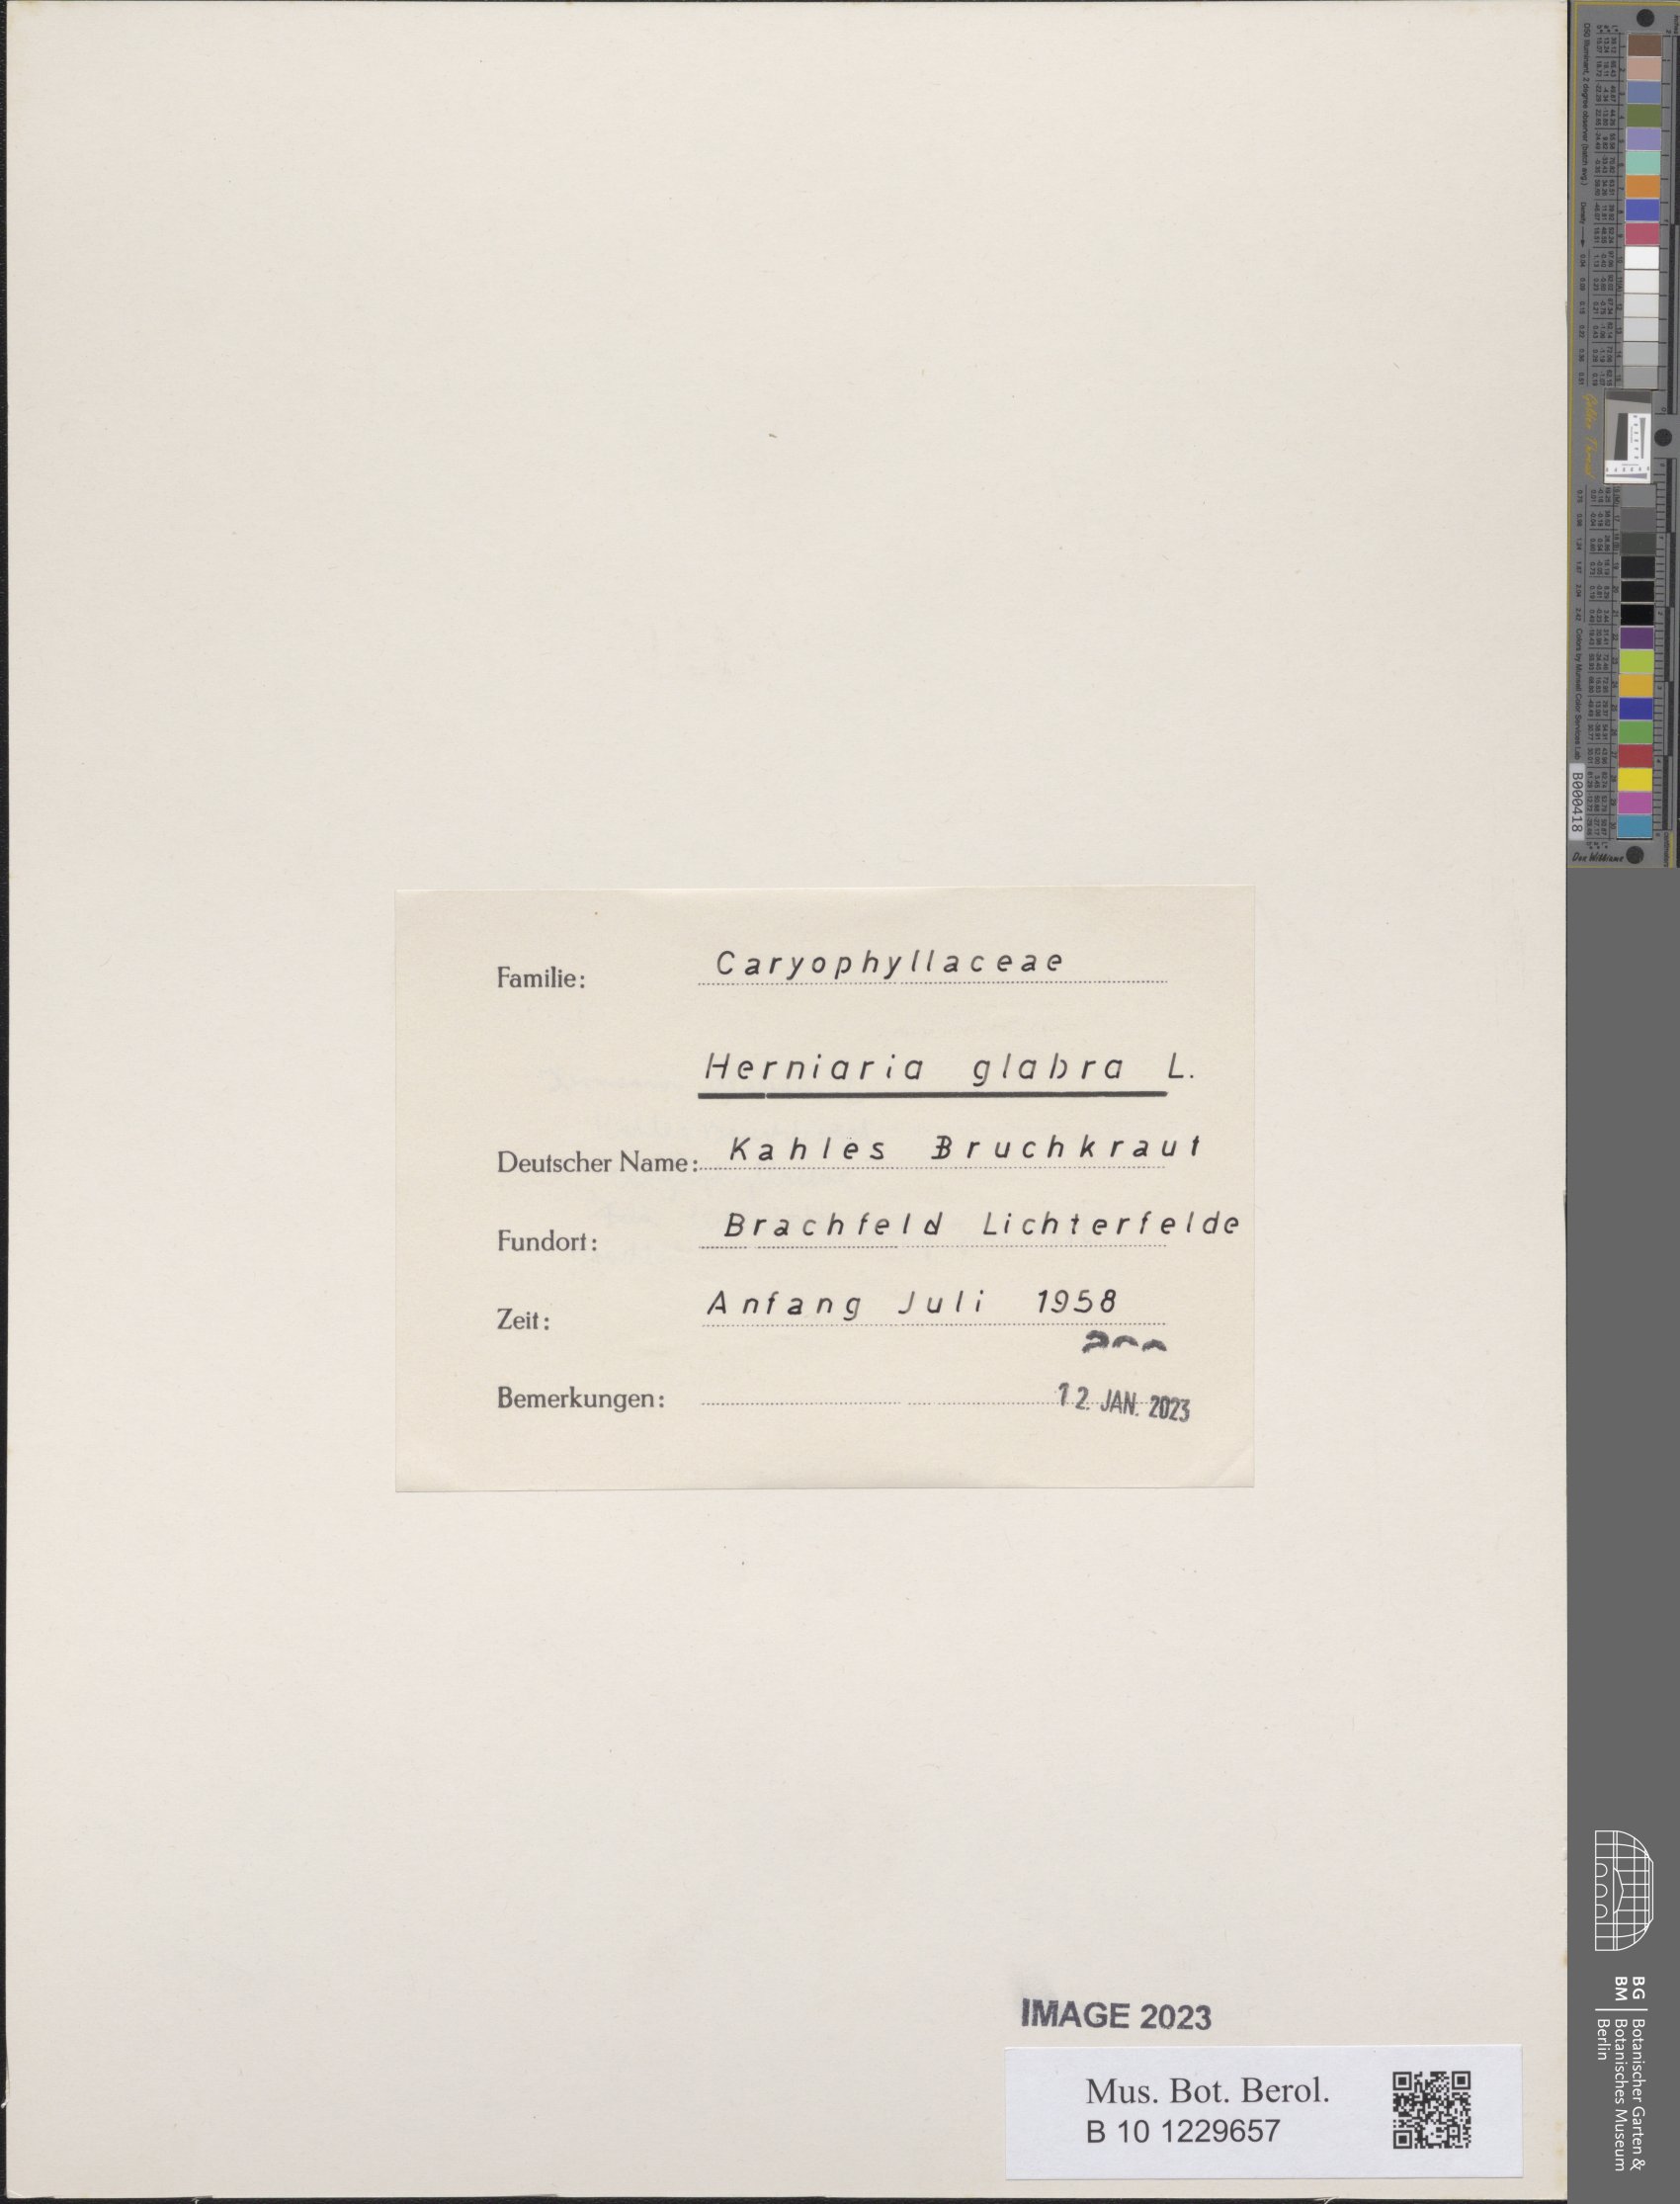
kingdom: Plantae
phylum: Tracheophyta
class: Magnoliopsida
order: Caryophyllales
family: Caryophyllaceae
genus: Herniaria
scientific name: Herniaria glabra
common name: Smooth rupturewort
